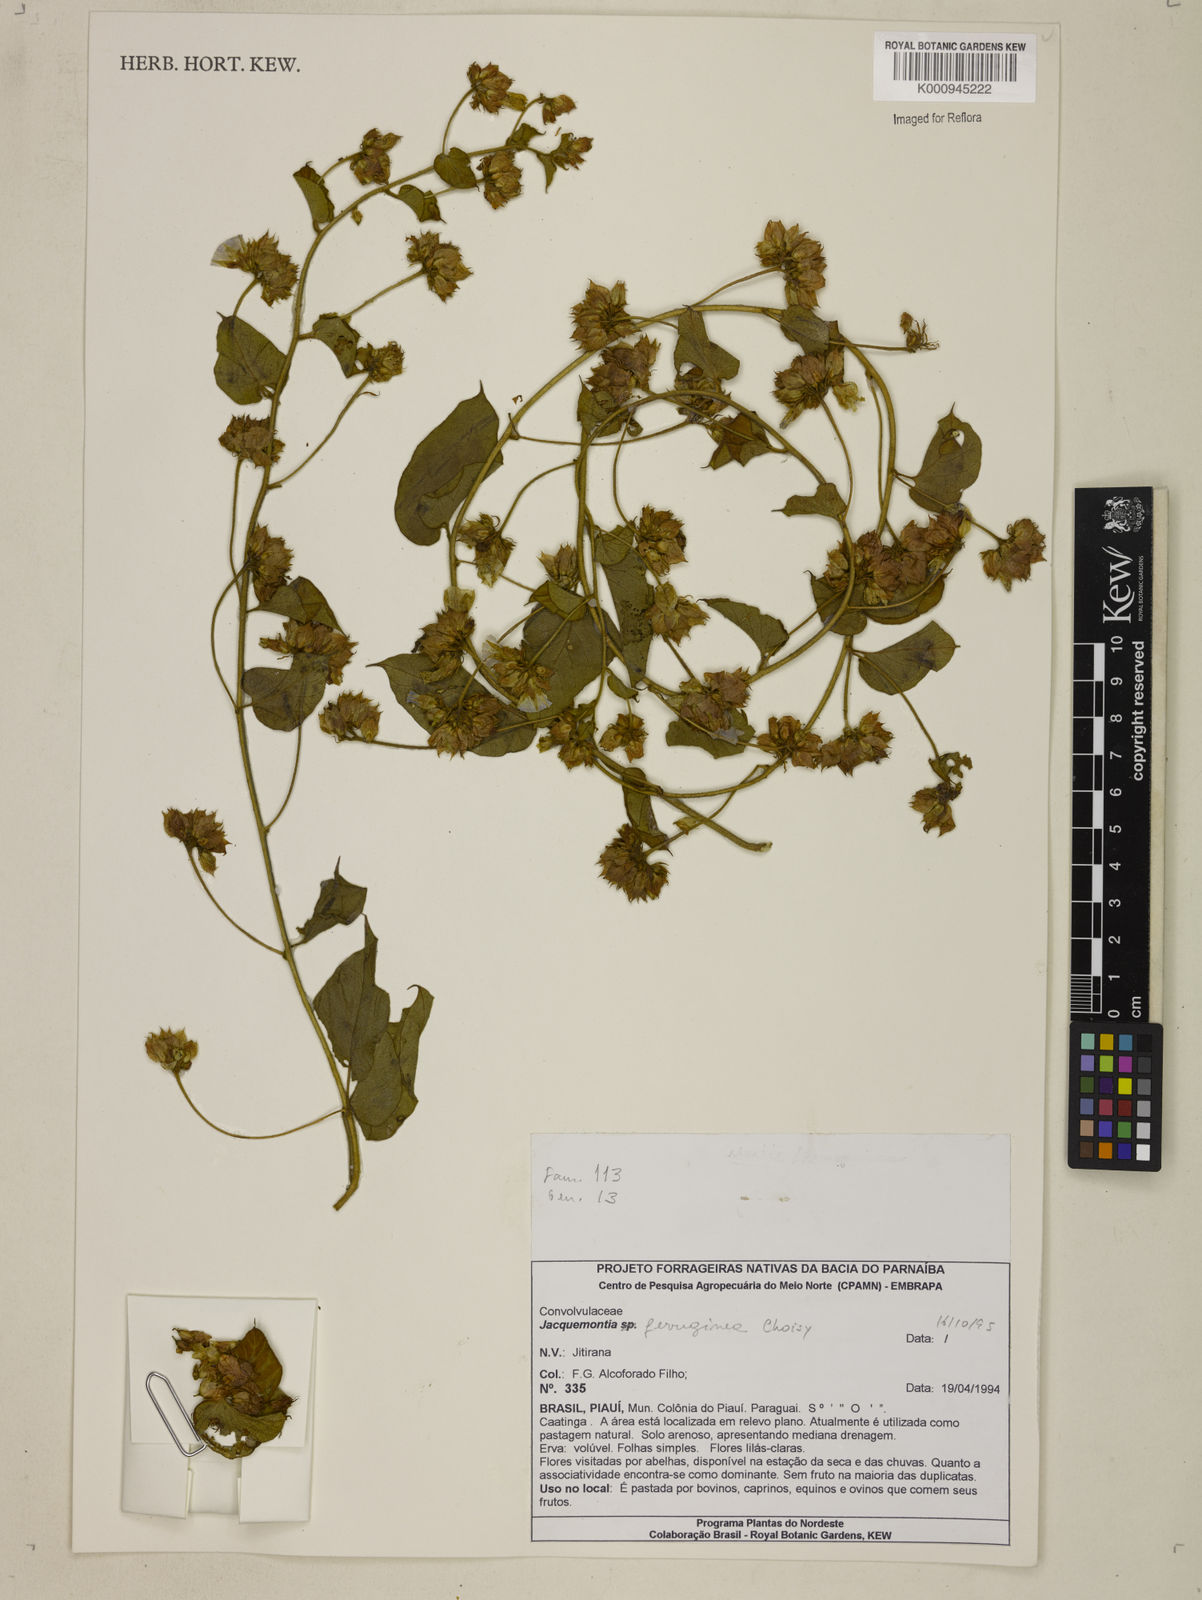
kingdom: Plantae
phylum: Tracheophyta
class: Magnoliopsida
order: Solanales
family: Convolvulaceae
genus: Jacquemontia
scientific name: Jacquemontia cumanensis
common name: Thicket clustervine
